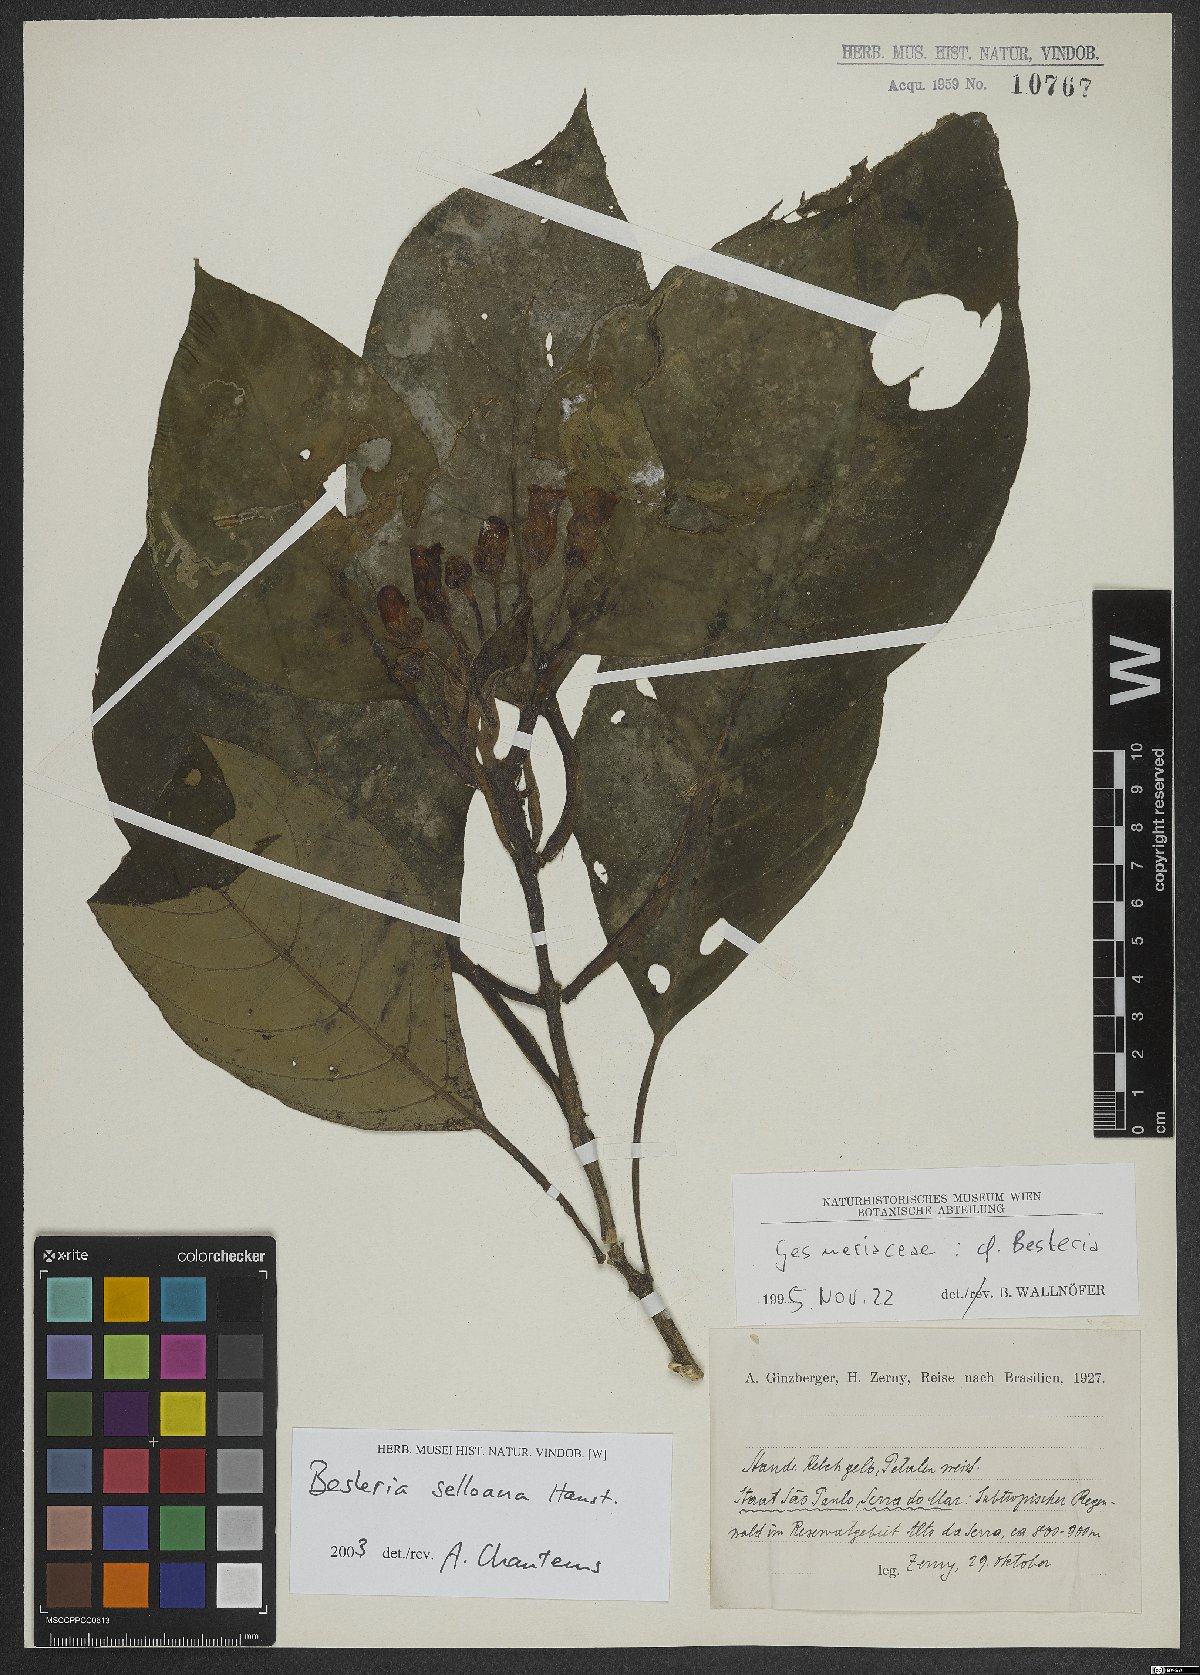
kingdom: Plantae
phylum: Tracheophyta
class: Magnoliopsida
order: Lamiales
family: Gesneriaceae
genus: Besleria
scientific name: Besleria selloana
